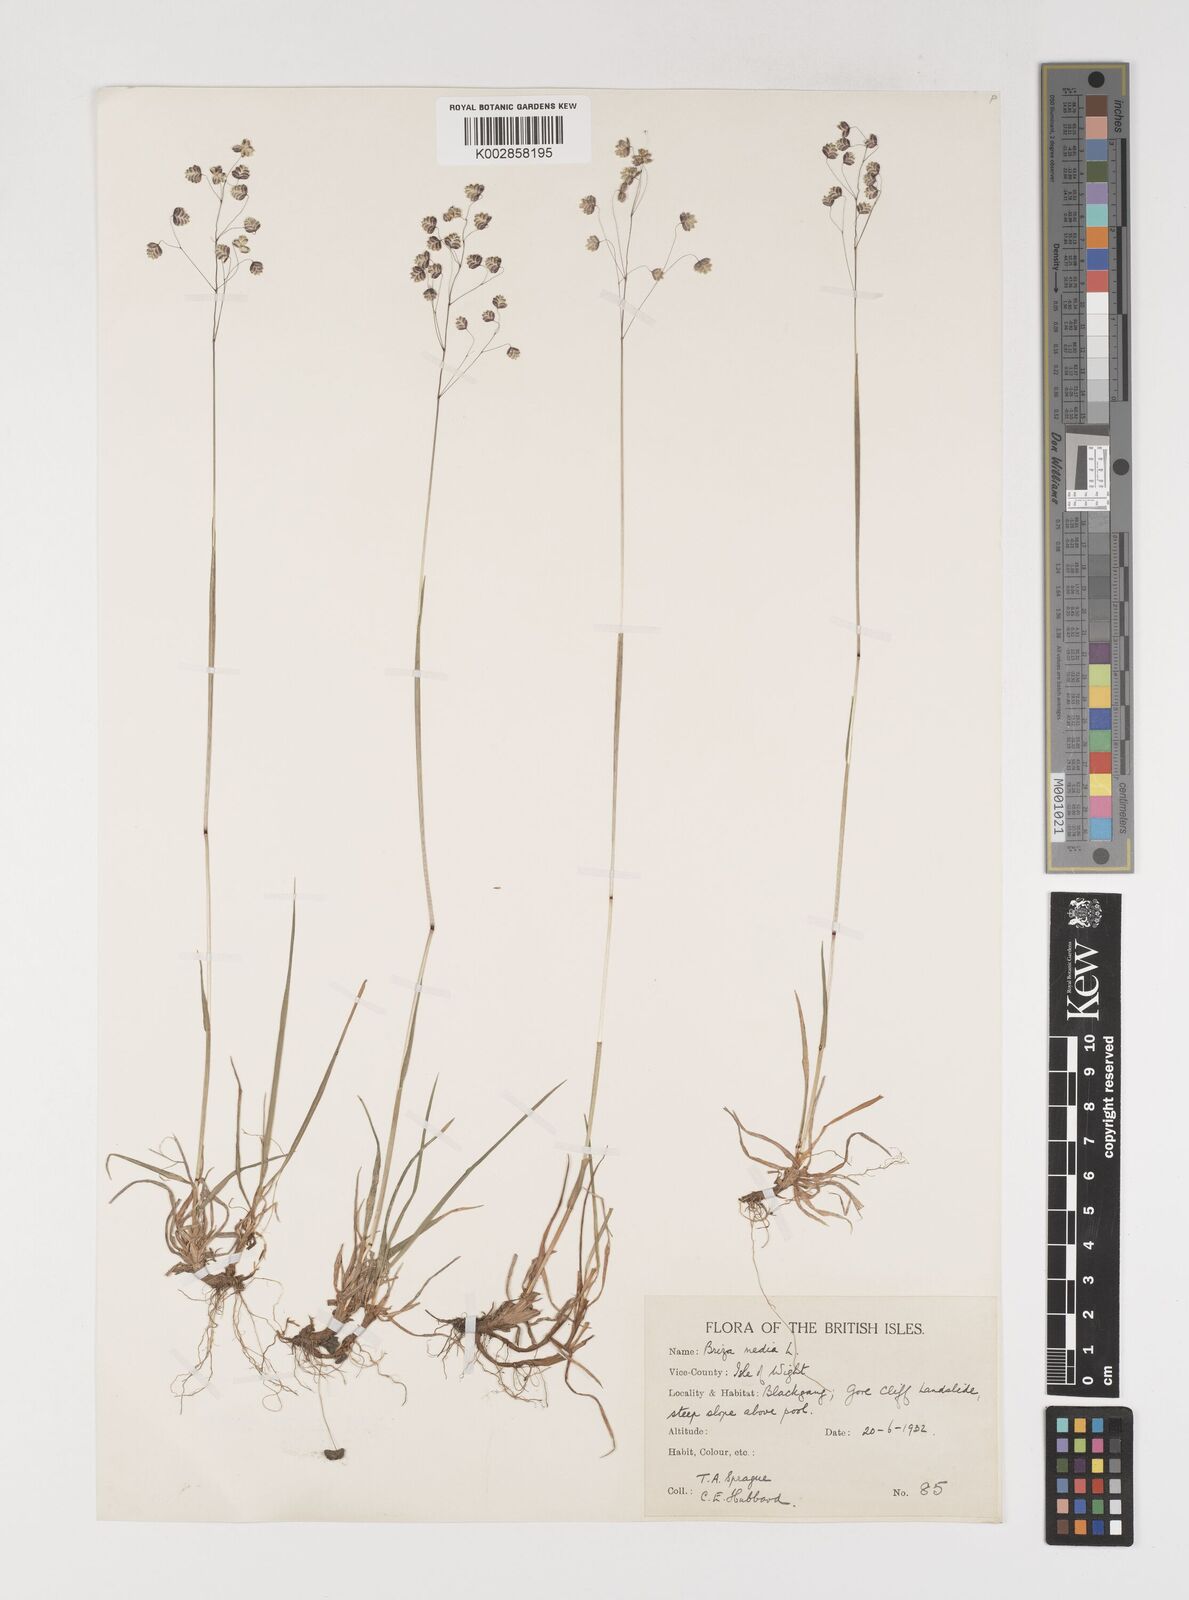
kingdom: Plantae
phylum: Tracheophyta
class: Liliopsida
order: Poales
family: Poaceae
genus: Briza
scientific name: Briza media
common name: Quaking grass
